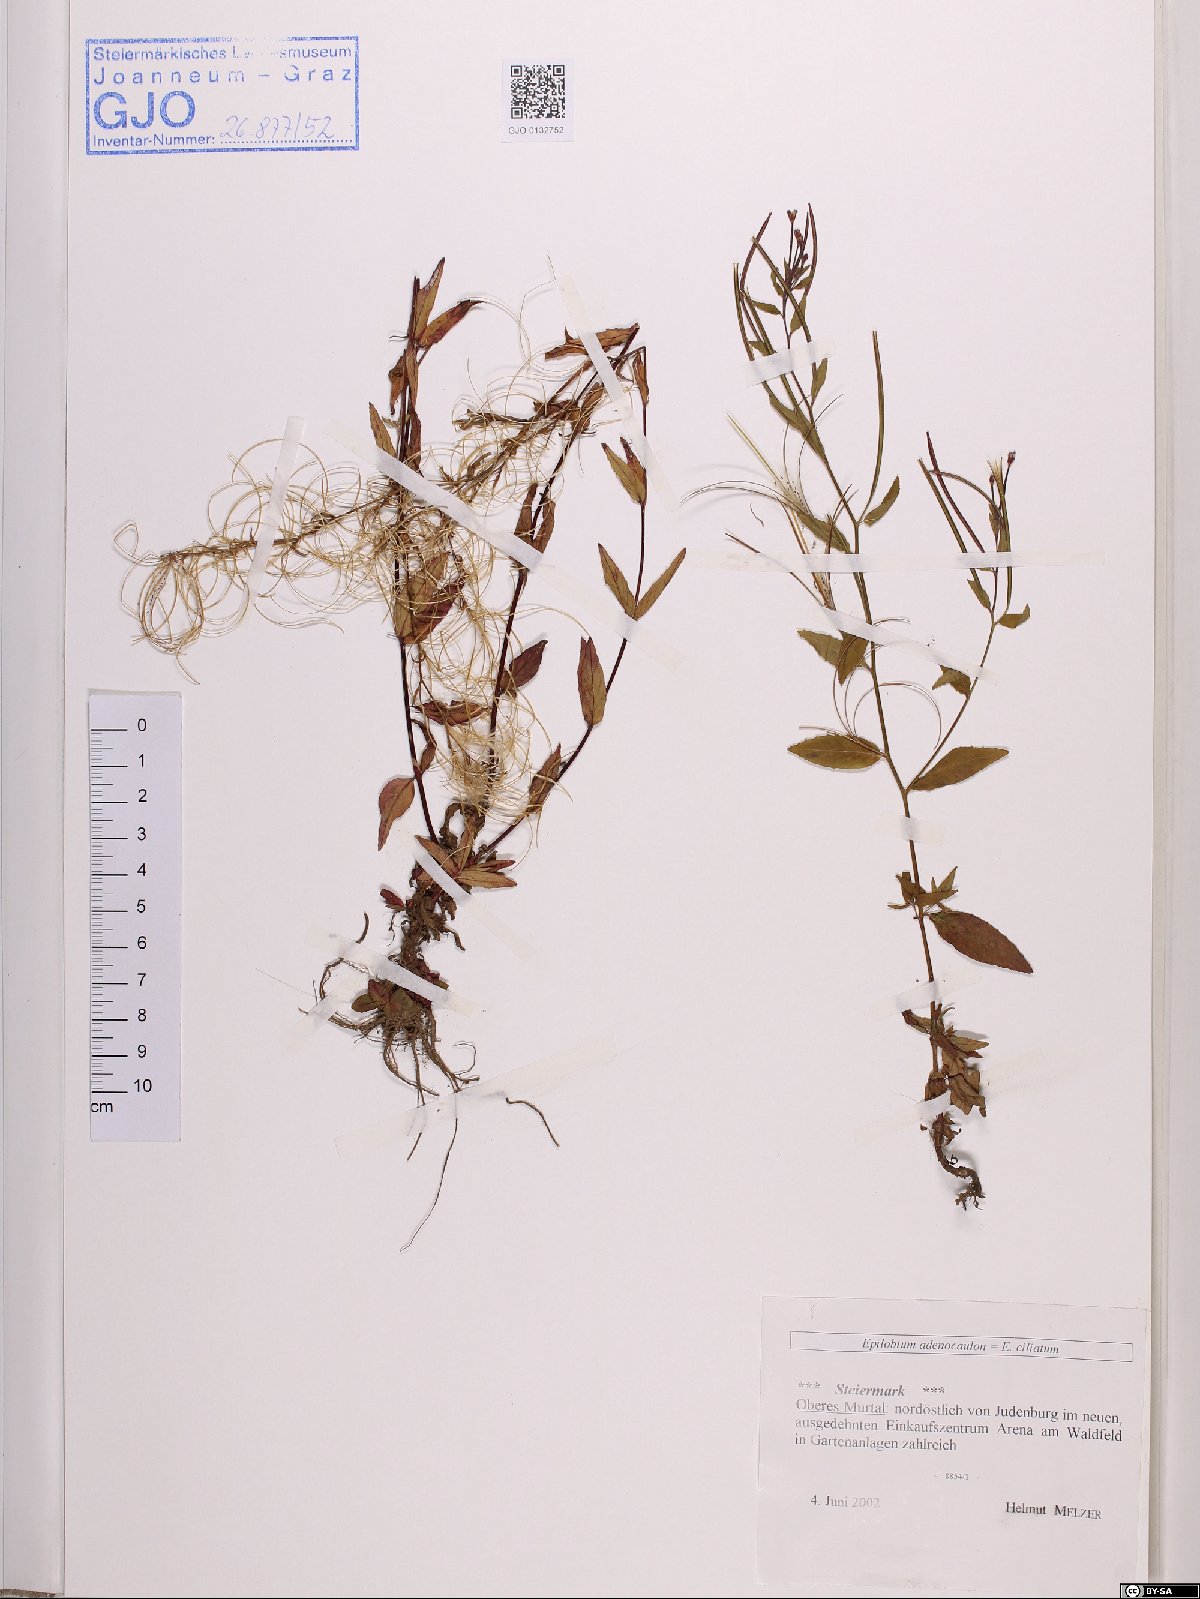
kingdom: Plantae
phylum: Tracheophyta
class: Magnoliopsida
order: Myrtales
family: Onagraceae
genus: Epilobium
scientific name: Epilobium ciliatum
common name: American willowherb
